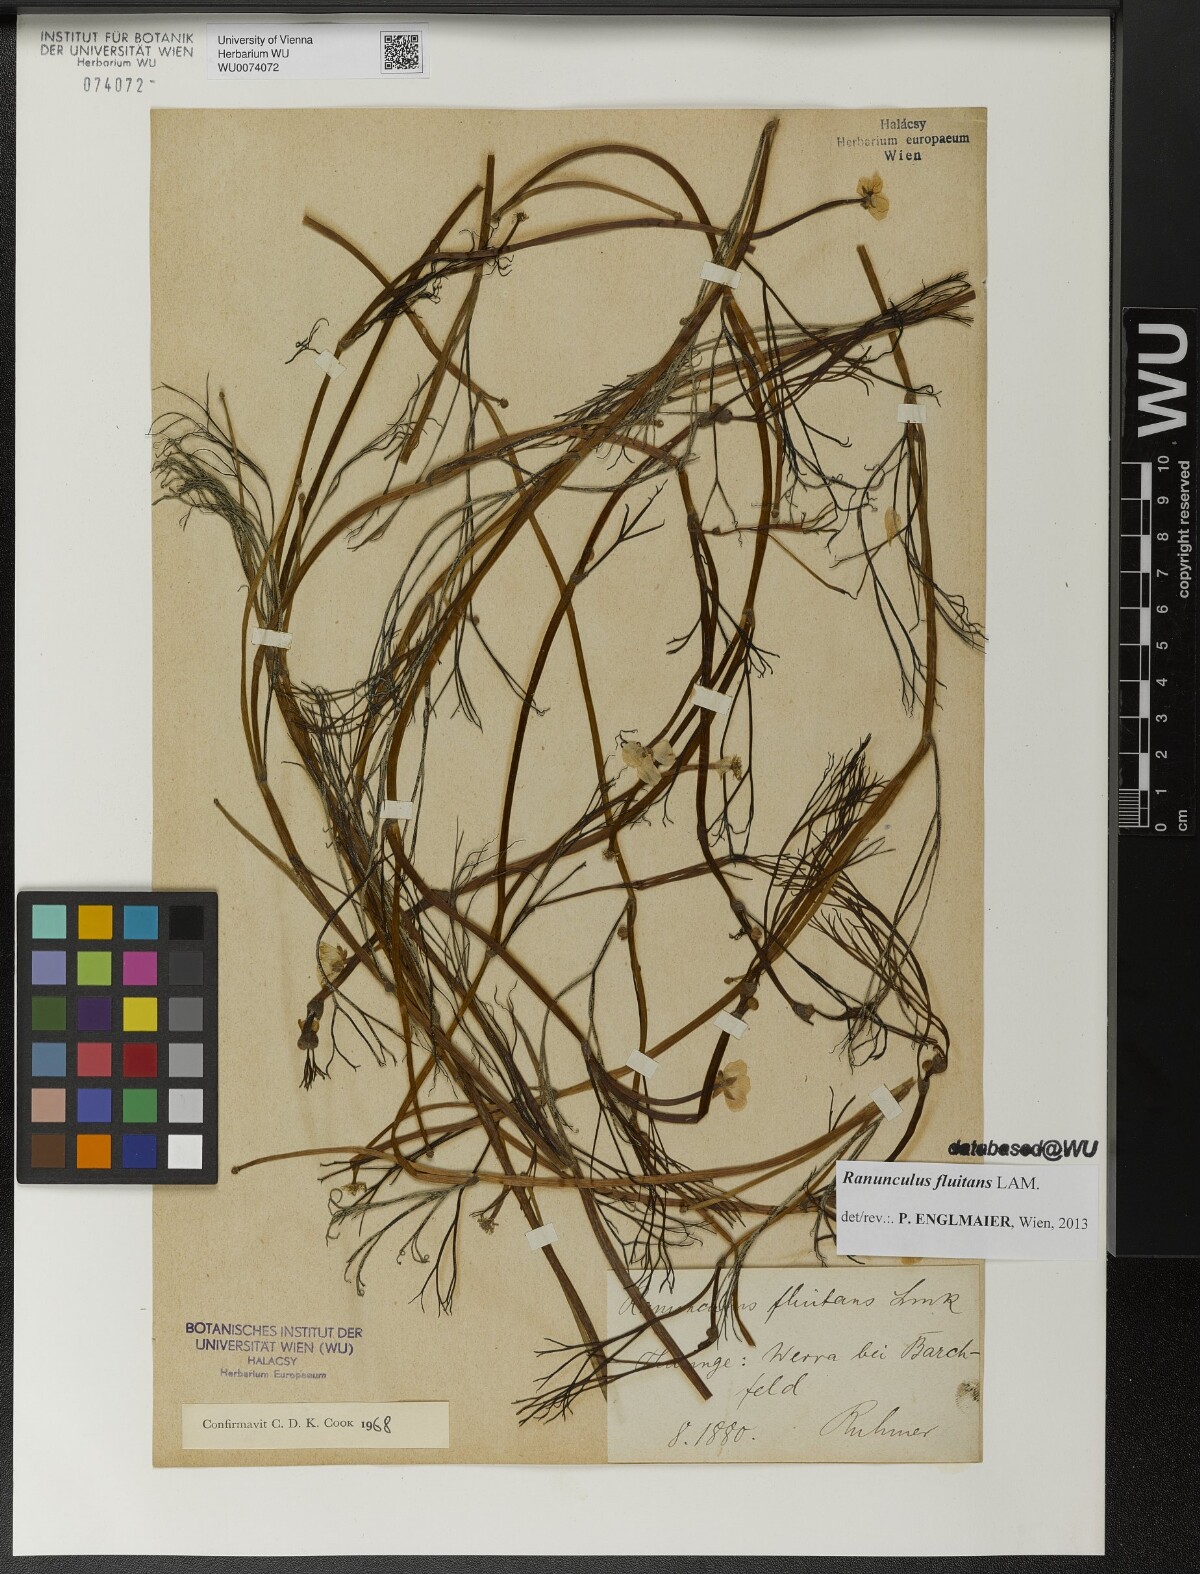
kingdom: Plantae
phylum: Tracheophyta
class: Magnoliopsida
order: Ranunculales
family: Ranunculaceae
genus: Ranunculus
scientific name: Ranunculus fluitans
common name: River water-crowfoot
